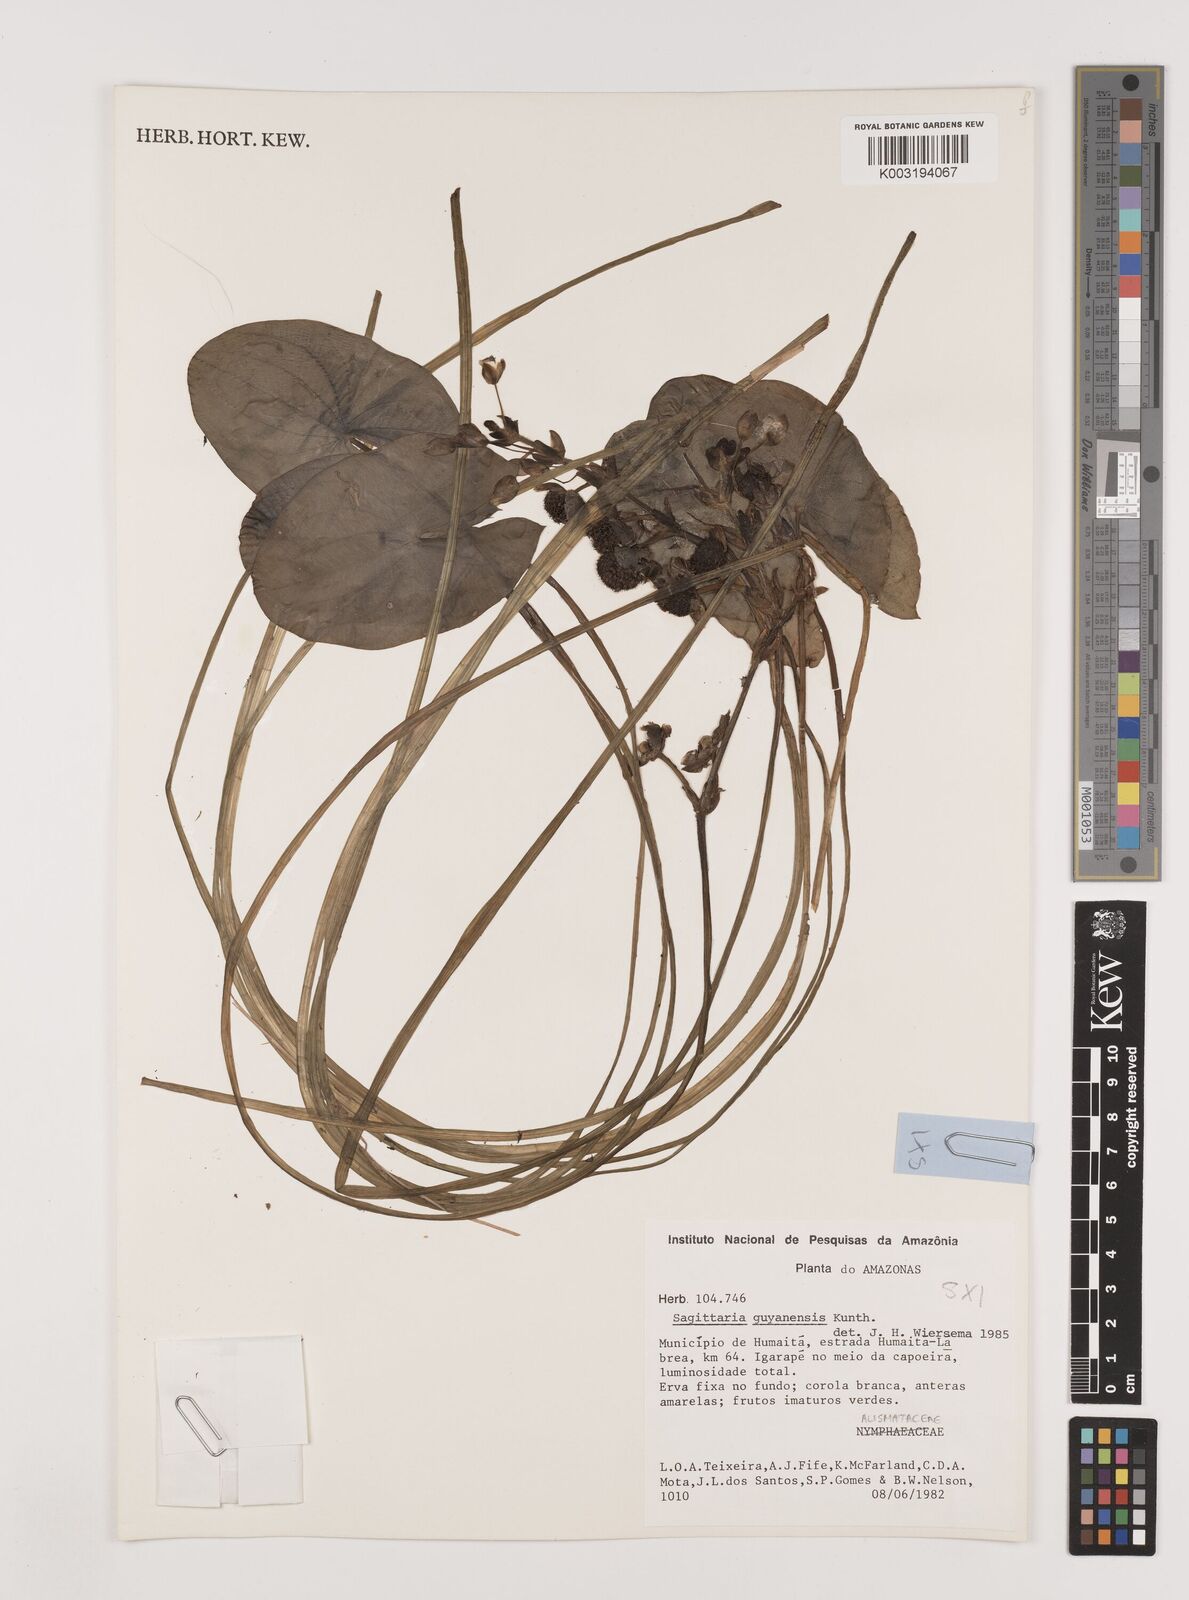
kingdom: Plantae
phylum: Tracheophyta
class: Liliopsida
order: Alismatales
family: Alismataceae
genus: Sagittaria
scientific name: Sagittaria guayanensis
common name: Guyanese arrowhead
